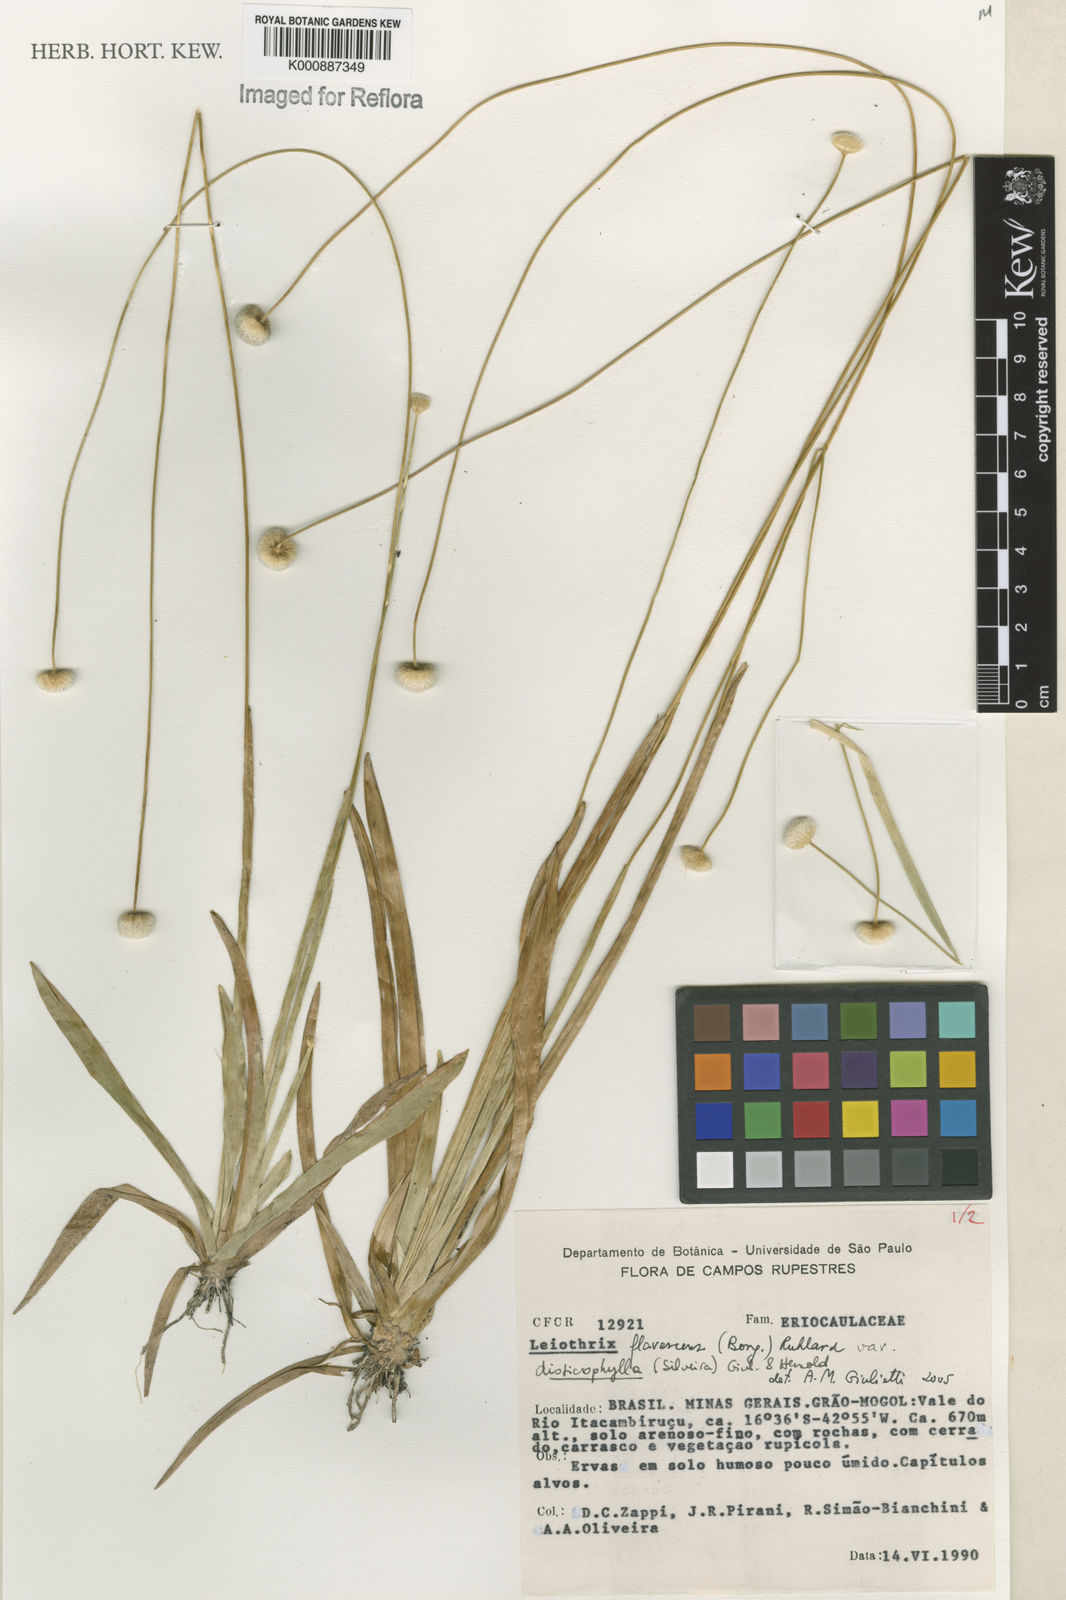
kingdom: Plantae
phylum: Tracheophyta
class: Liliopsida
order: Poales
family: Eriocaulaceae
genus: Leiothrix
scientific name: Leiothrix flavescens
